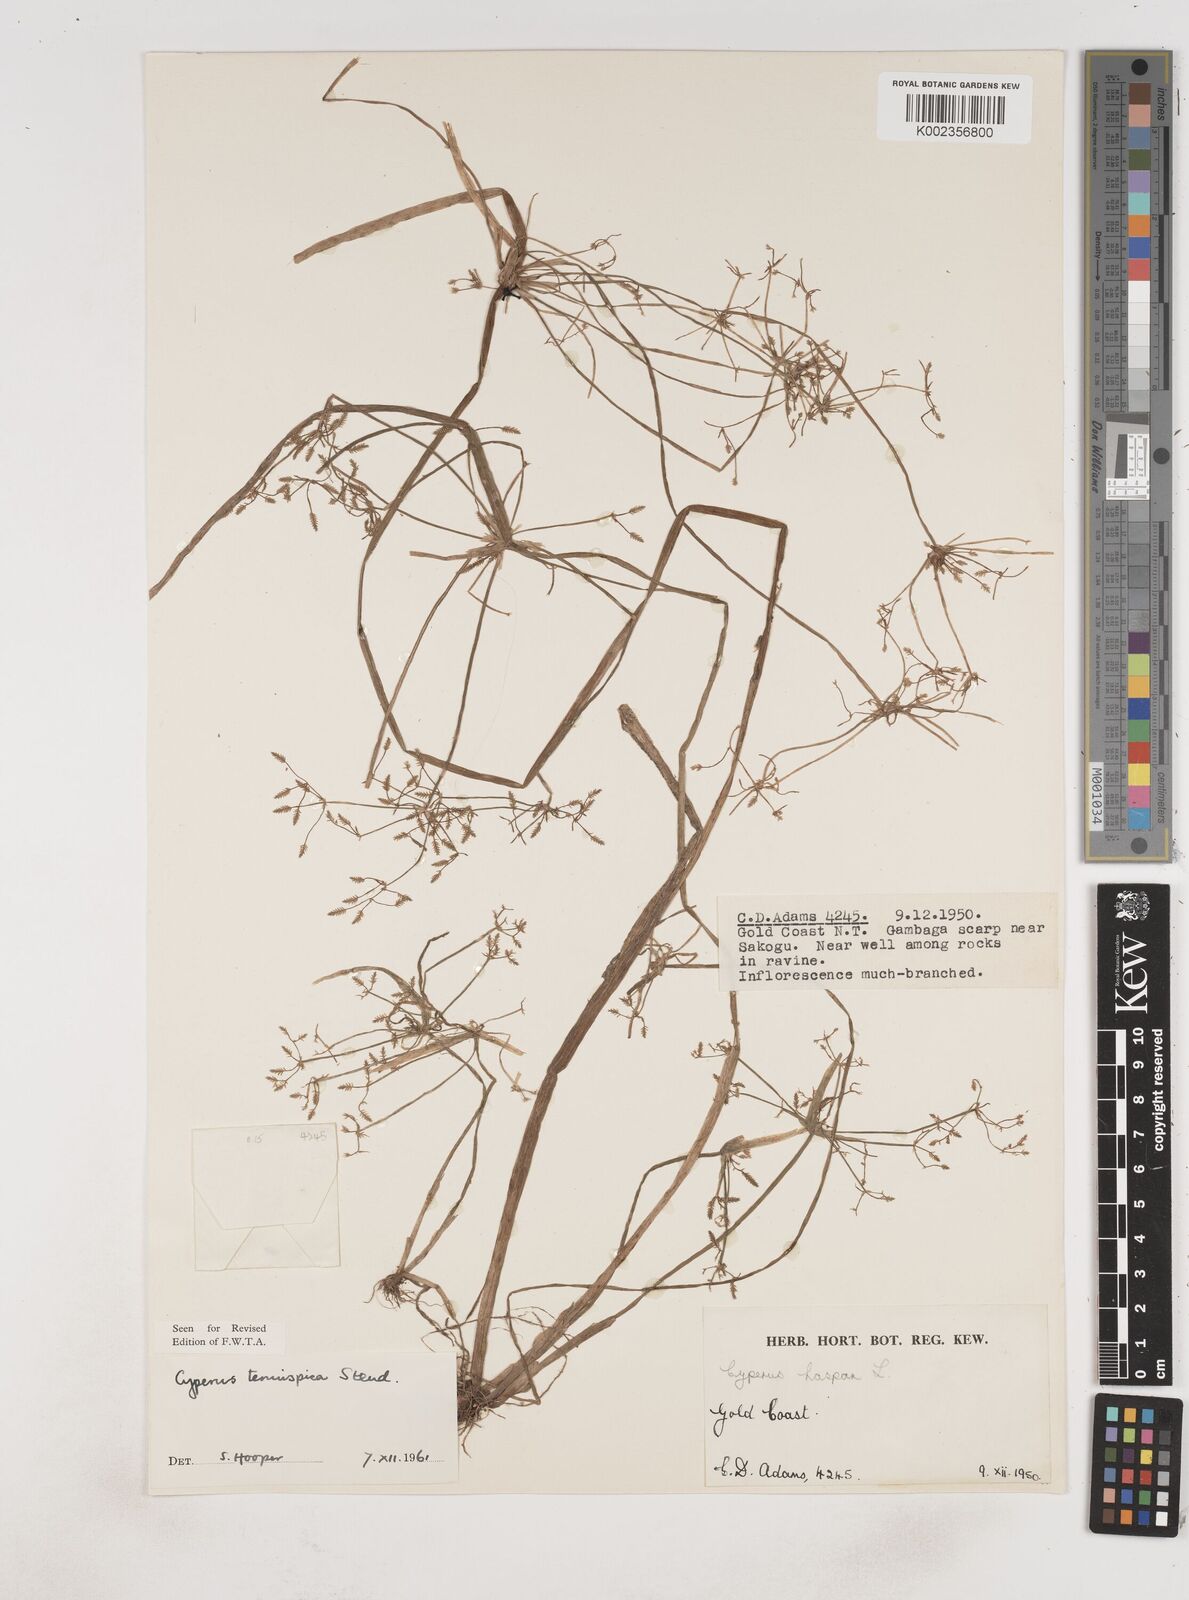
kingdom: Plantae
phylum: Tracheophyta
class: Liliopsida
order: Poales
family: Cyperaceae
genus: Cyperus
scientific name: Cyperus tenuispica
